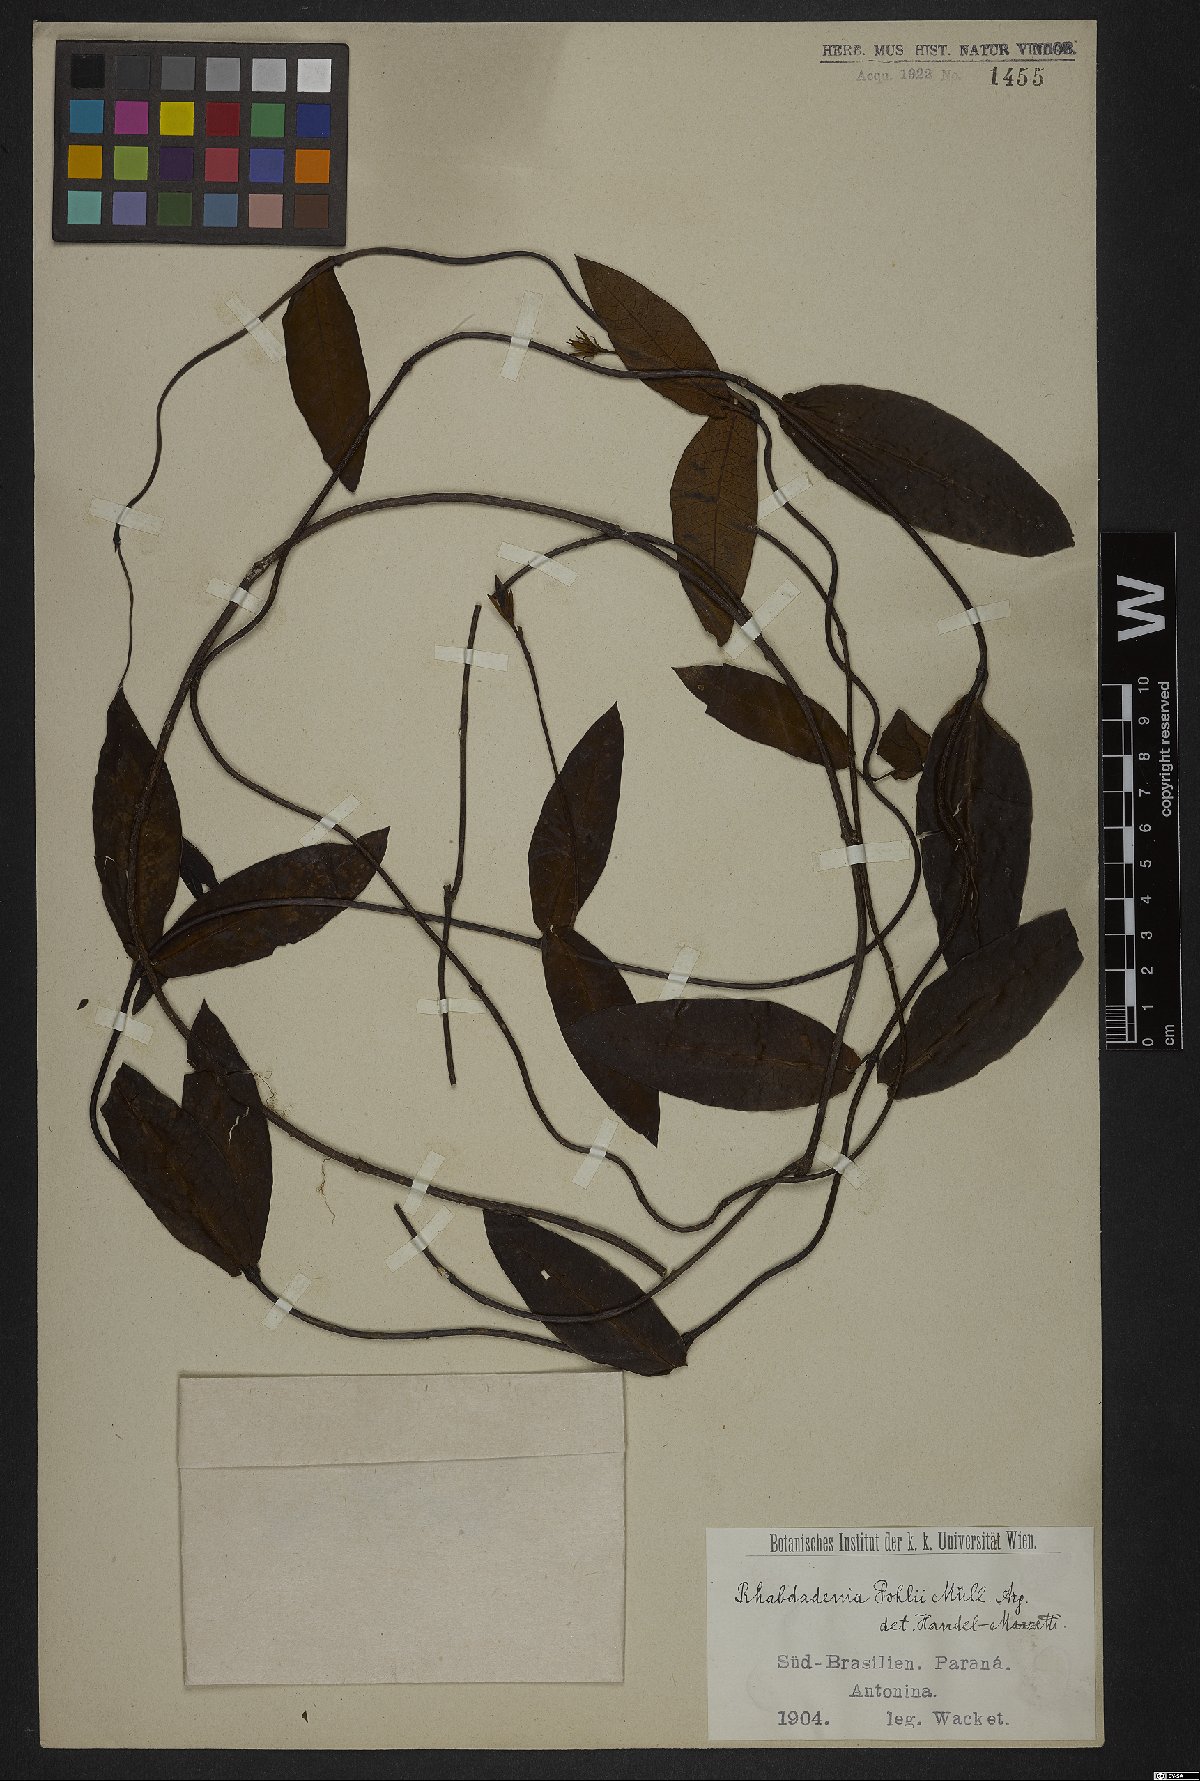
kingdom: Plantae
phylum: Tracheophyta
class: Magnoliopsida
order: Gentianales
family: Apocynaceae
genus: Rhabdadenia
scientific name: Rhabdadenia madida
